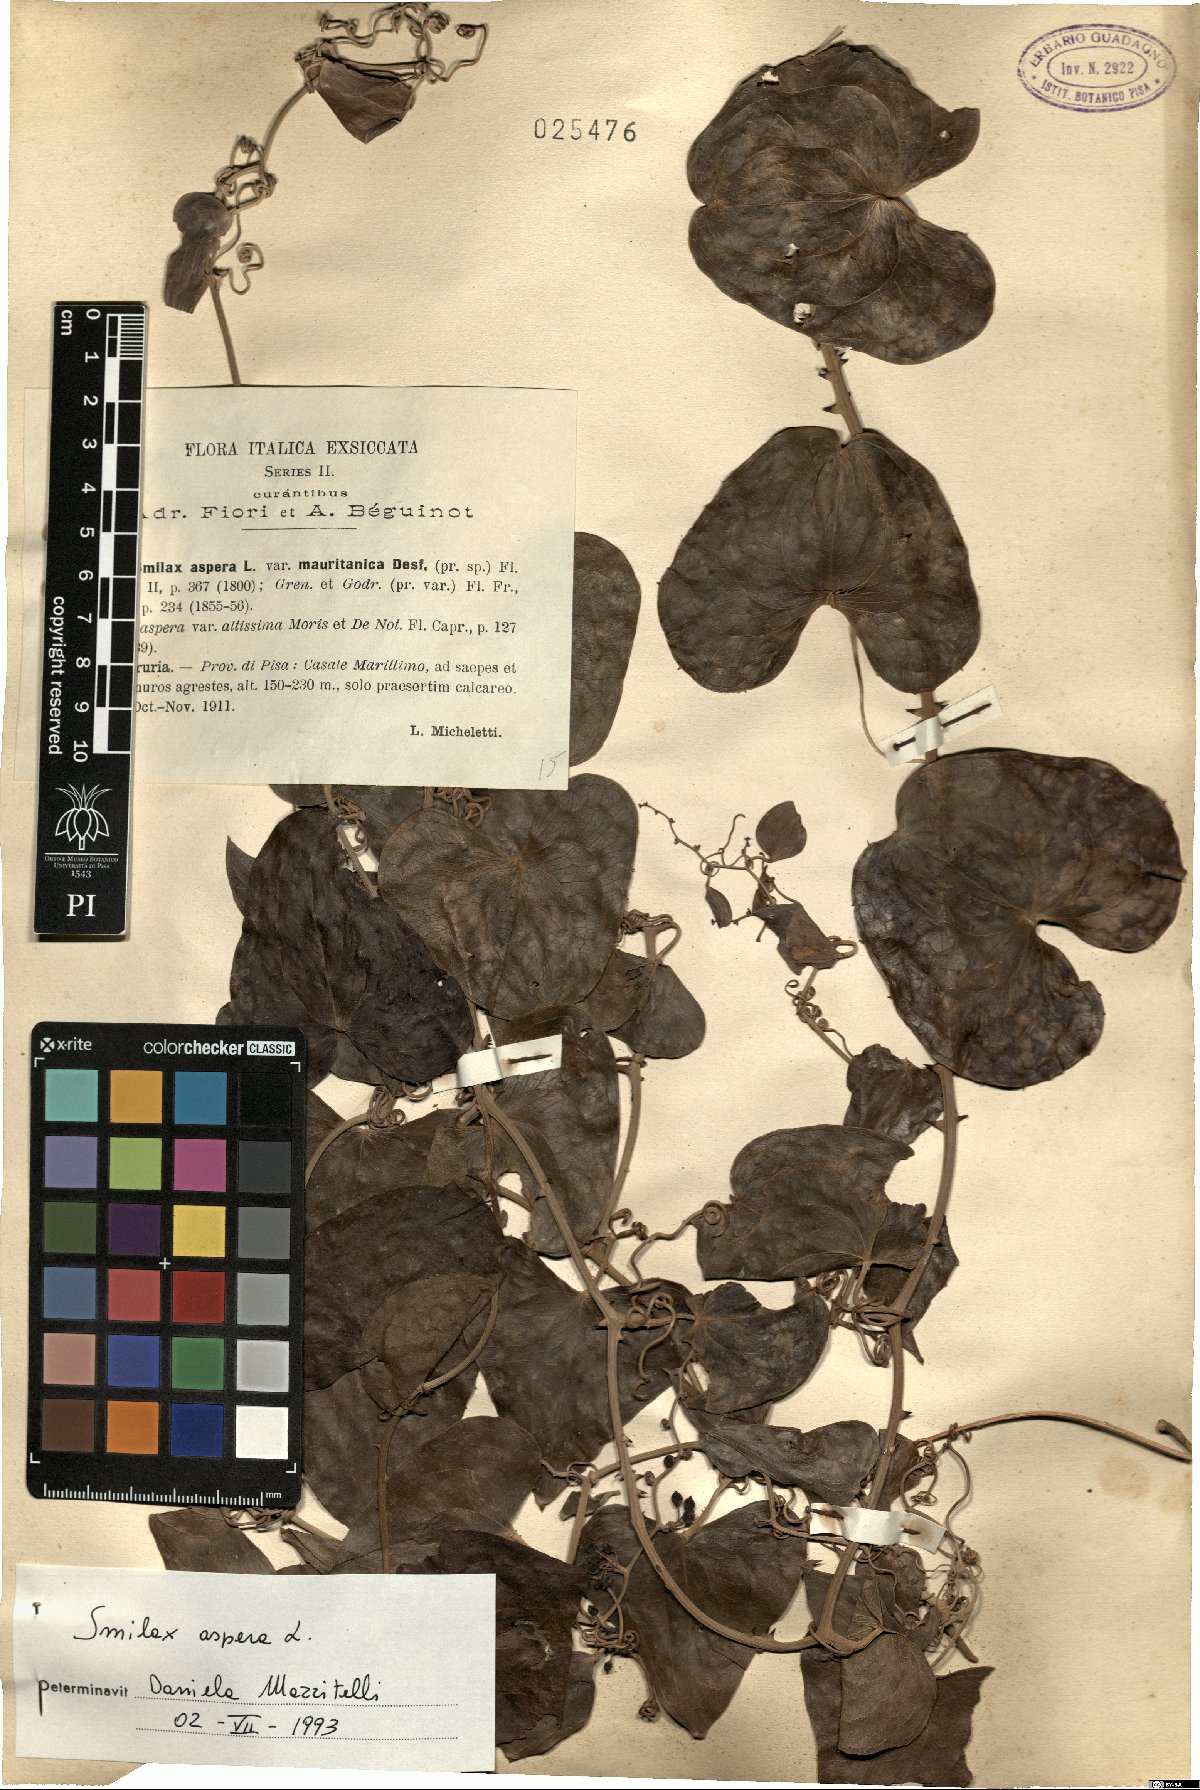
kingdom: Plantae
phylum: Tracheophyta
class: Liliopsida
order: Liliales
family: Smilacaceae
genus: Smilax
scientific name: Smilax aspera
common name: Common smilax
